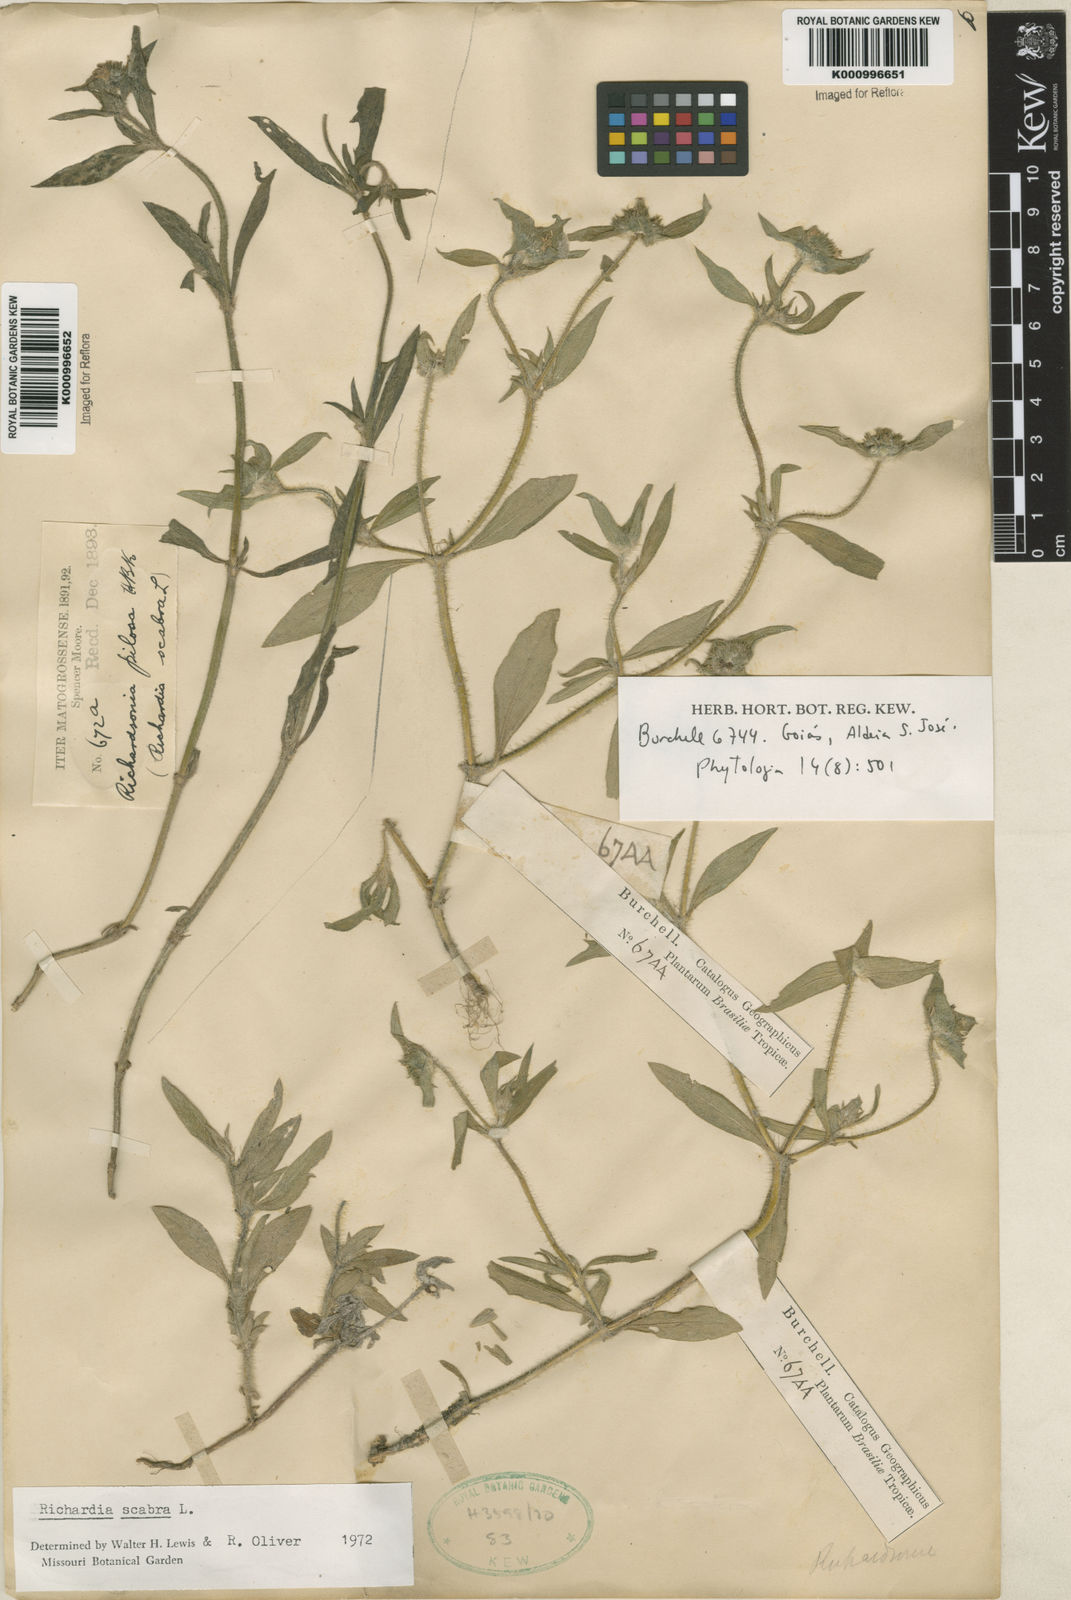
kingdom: Plantae
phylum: Tracheophyta
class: Magnoliopsida
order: Gentianales
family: Rubiaceae
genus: Richardia
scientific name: Richardia scabra
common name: Rough mexican clover
